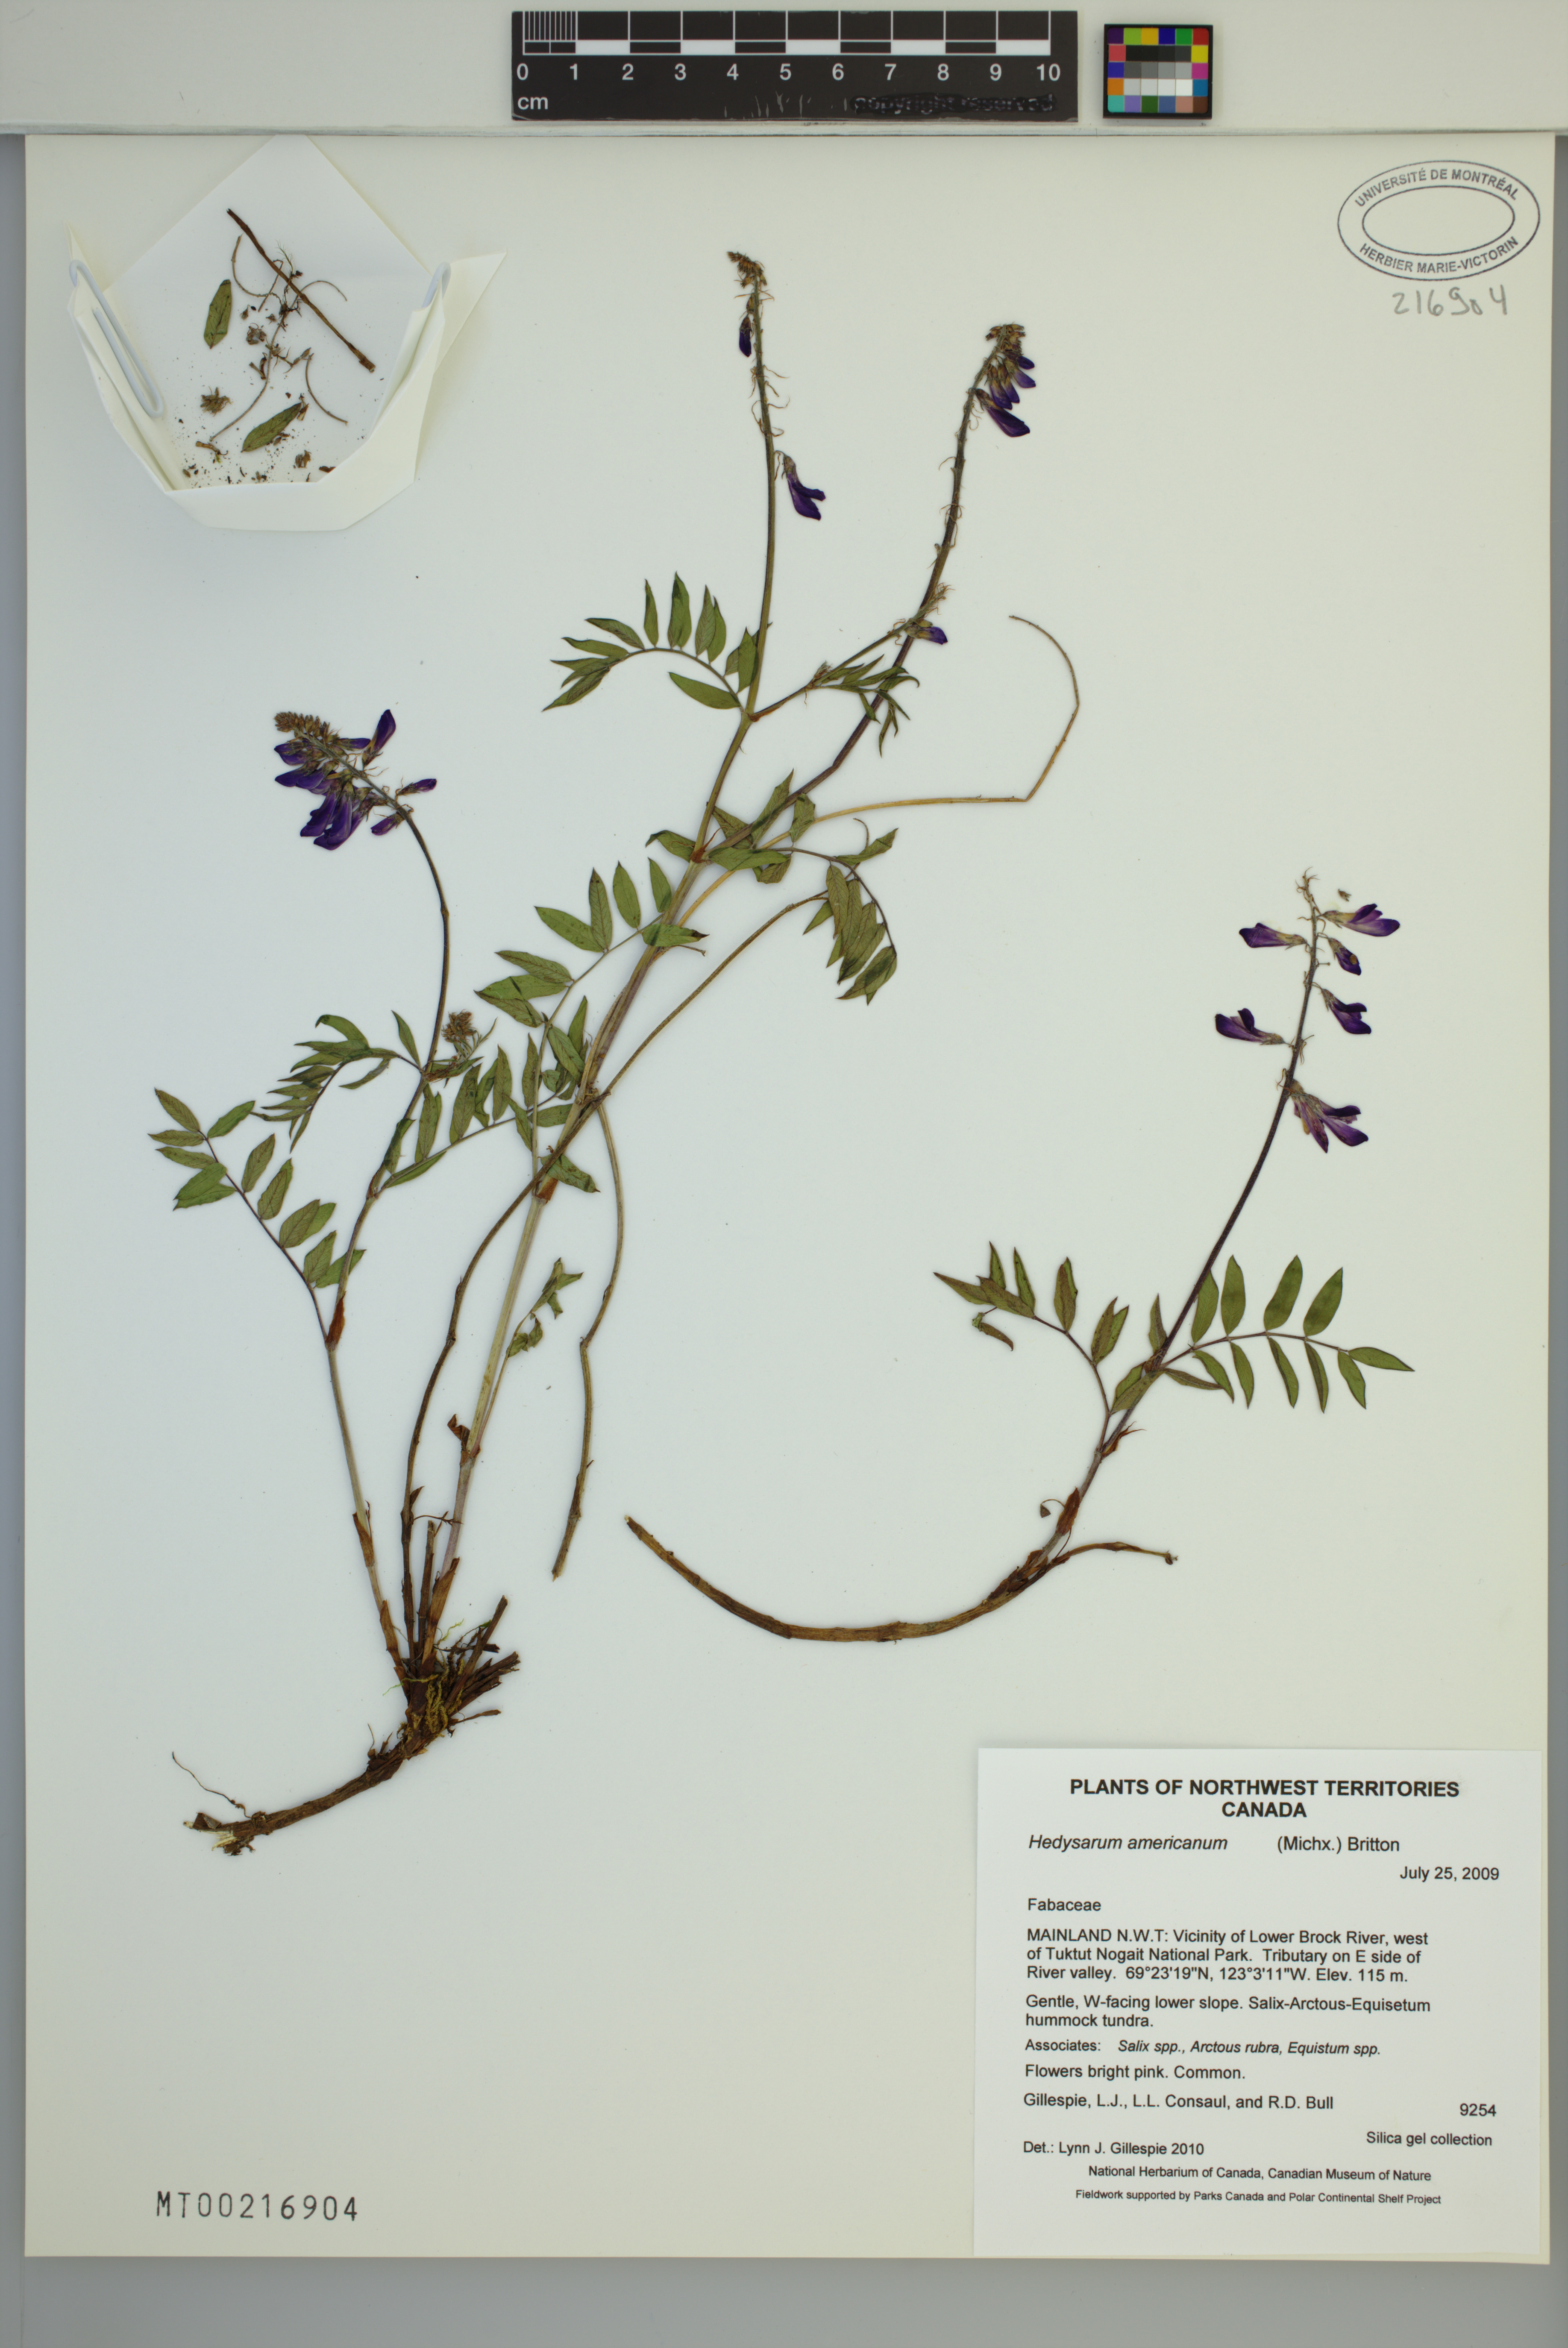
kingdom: Plantae
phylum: Tracheophyta
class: Magnoliopsida
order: Fabales
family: Fabaceae
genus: Hedysarum
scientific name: Hedysarum americanum
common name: Alpine hedysarum
